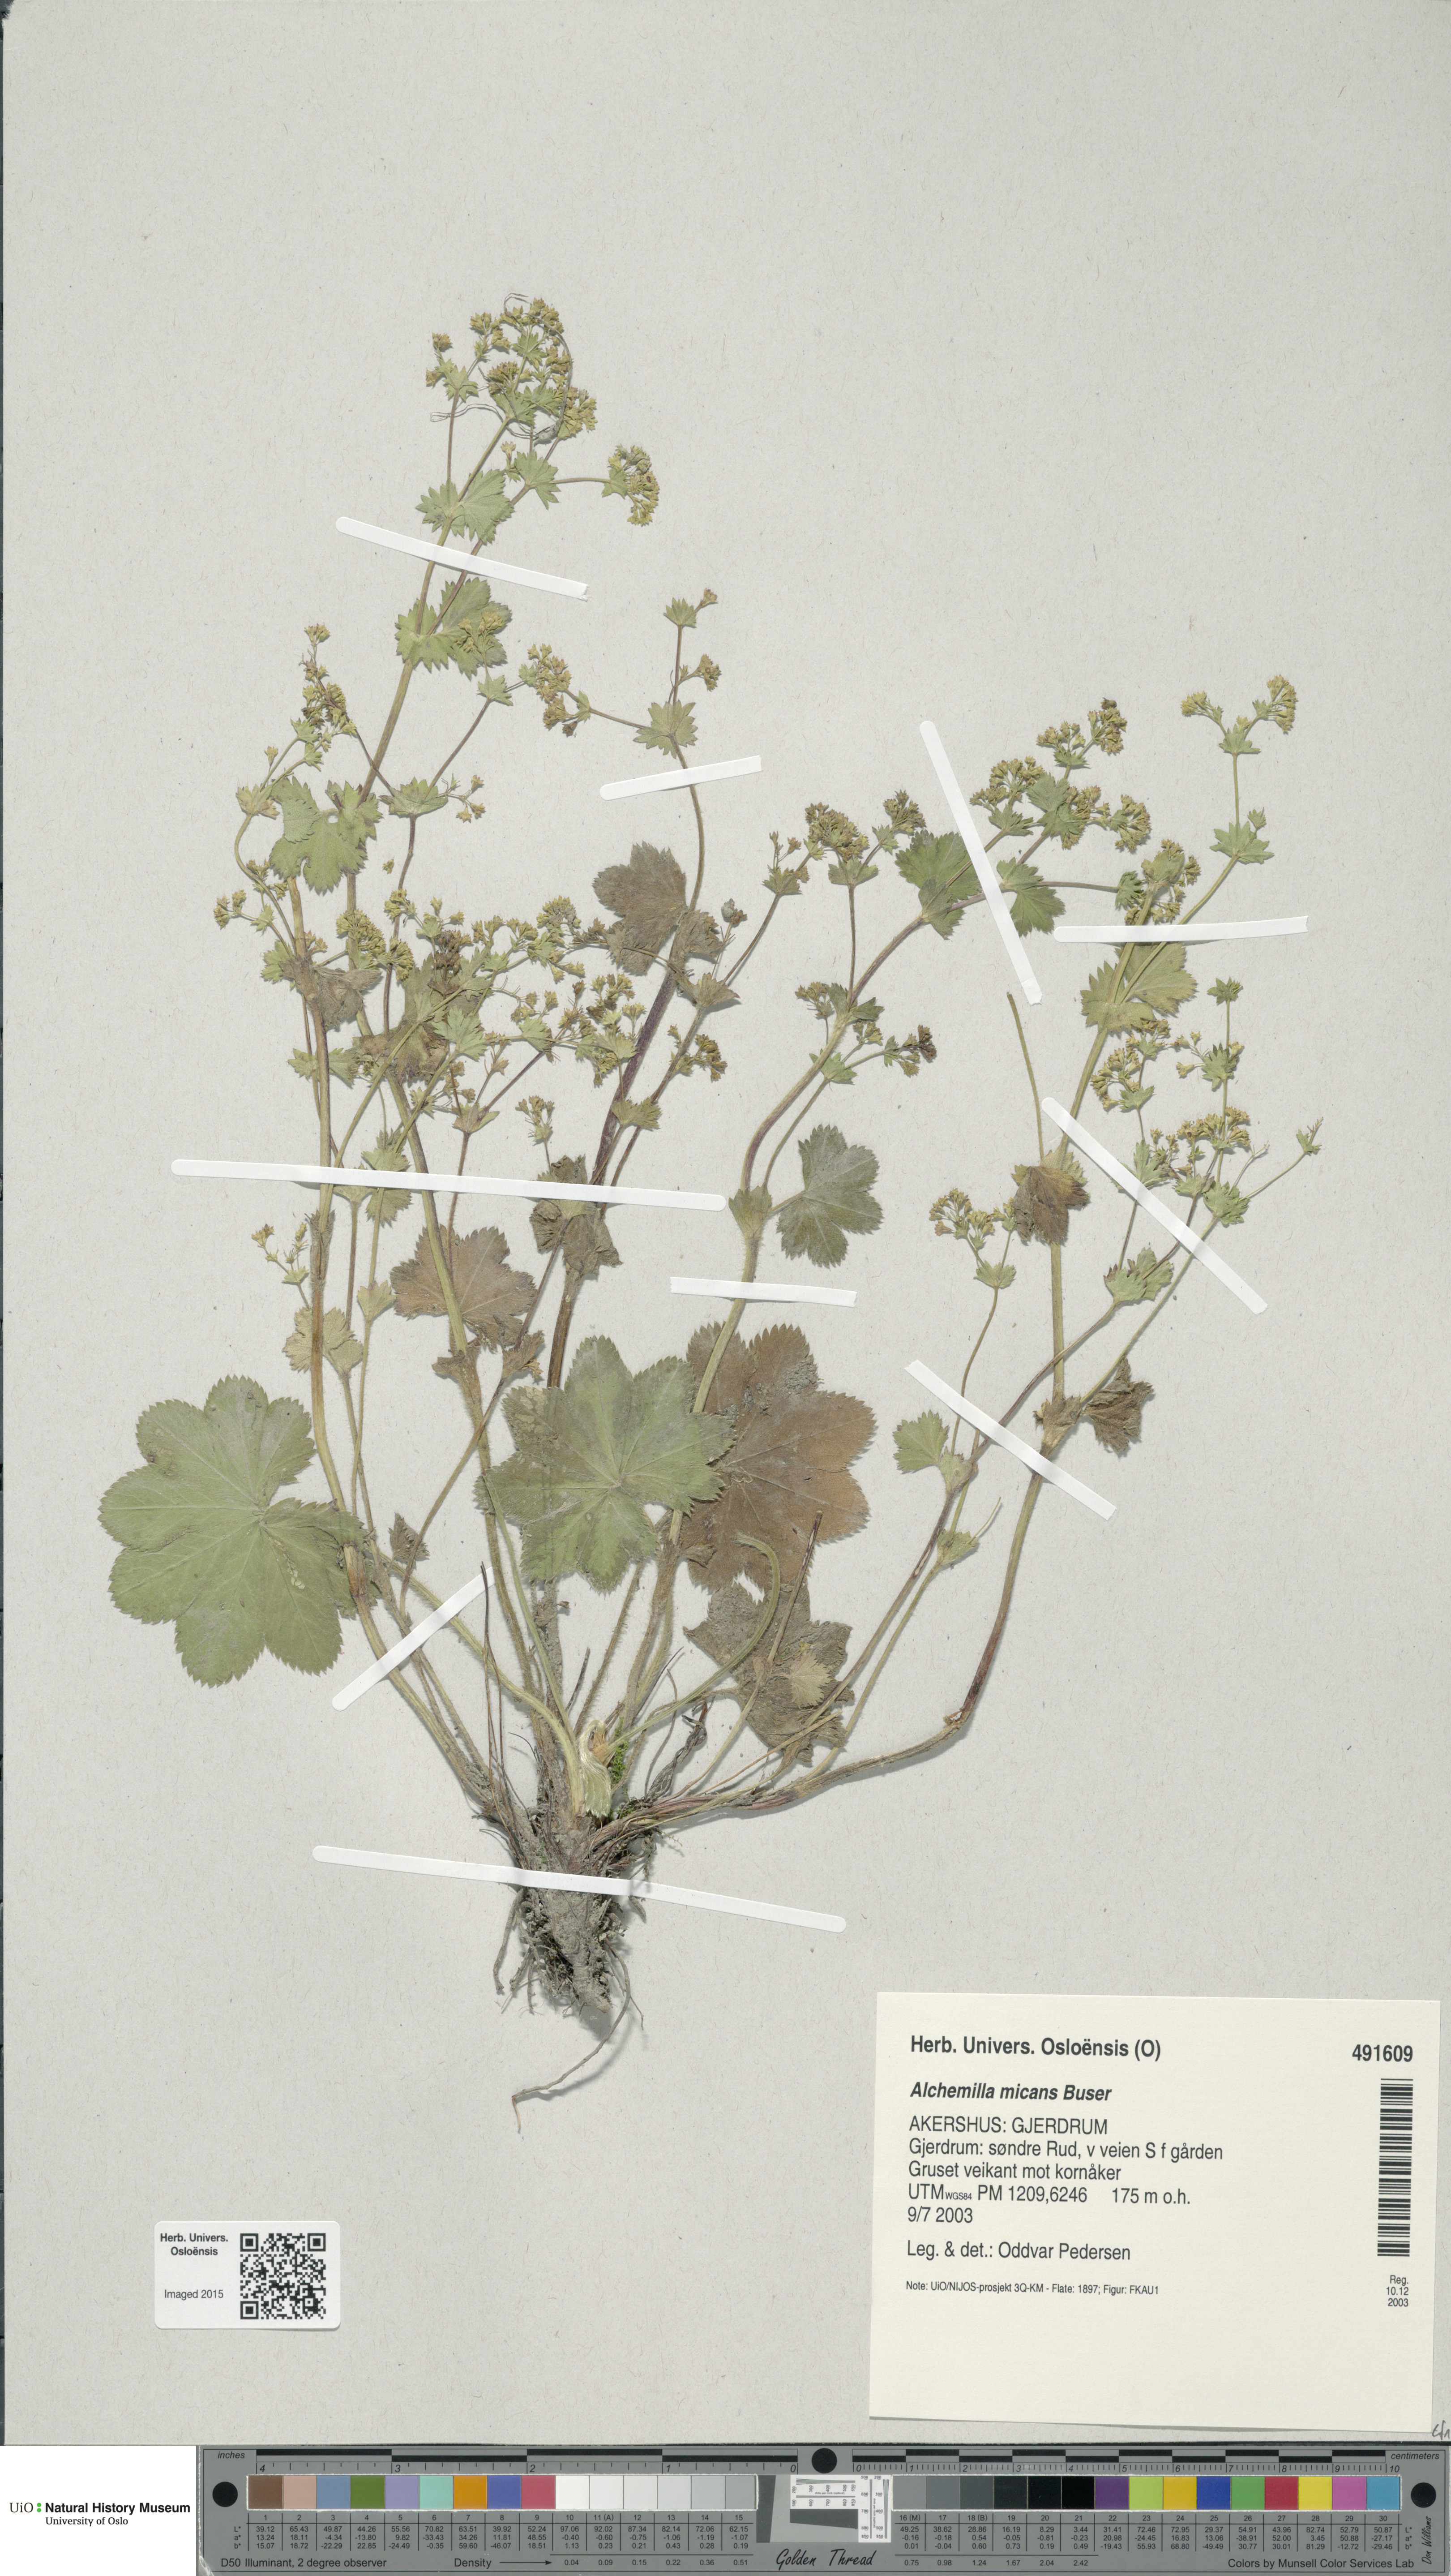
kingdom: Plantae
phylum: Tracheophyta
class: Magnoliopsida
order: Rosales
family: Rosaceae
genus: Alchemilla
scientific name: Alchemilla micans
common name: Gleaming lady's mantle
